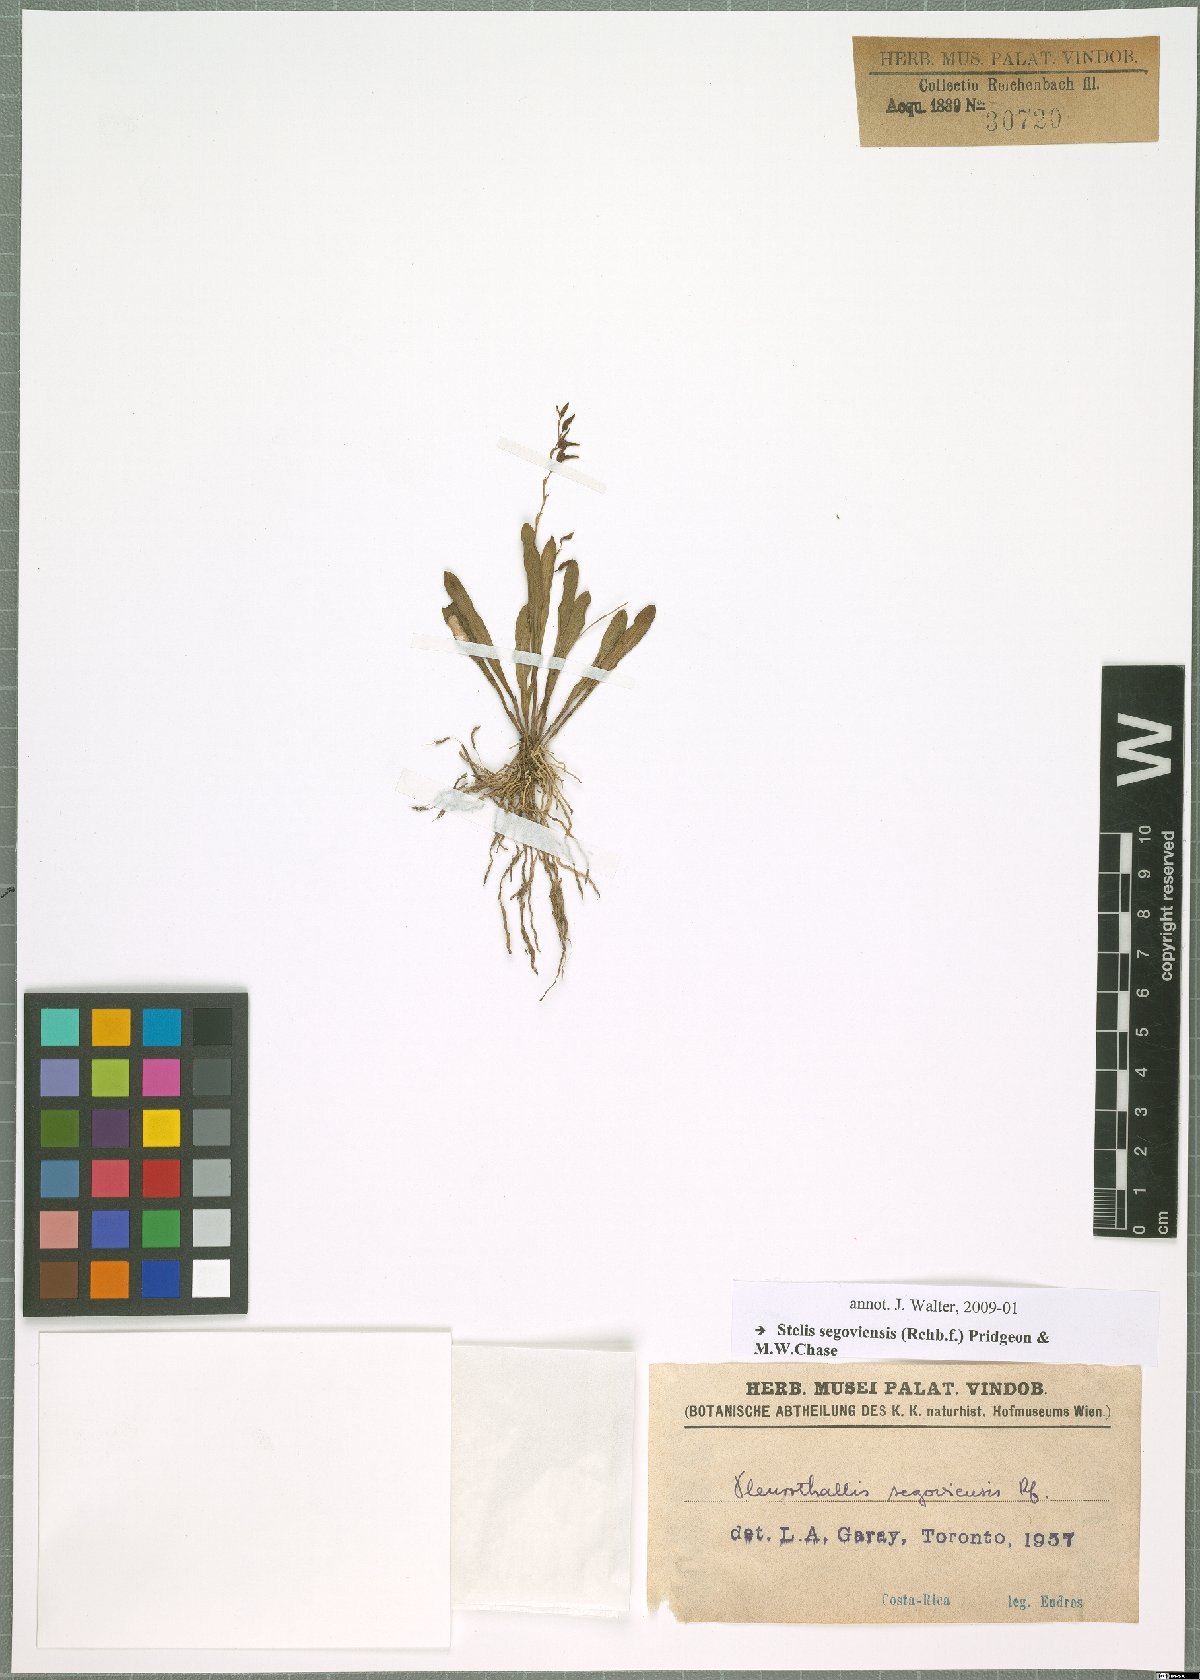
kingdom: Plantae
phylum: Tracheophyta
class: Liliopsida
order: Asparagales
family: Orchidaceae
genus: Stelis
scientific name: Stelis segoviensis
